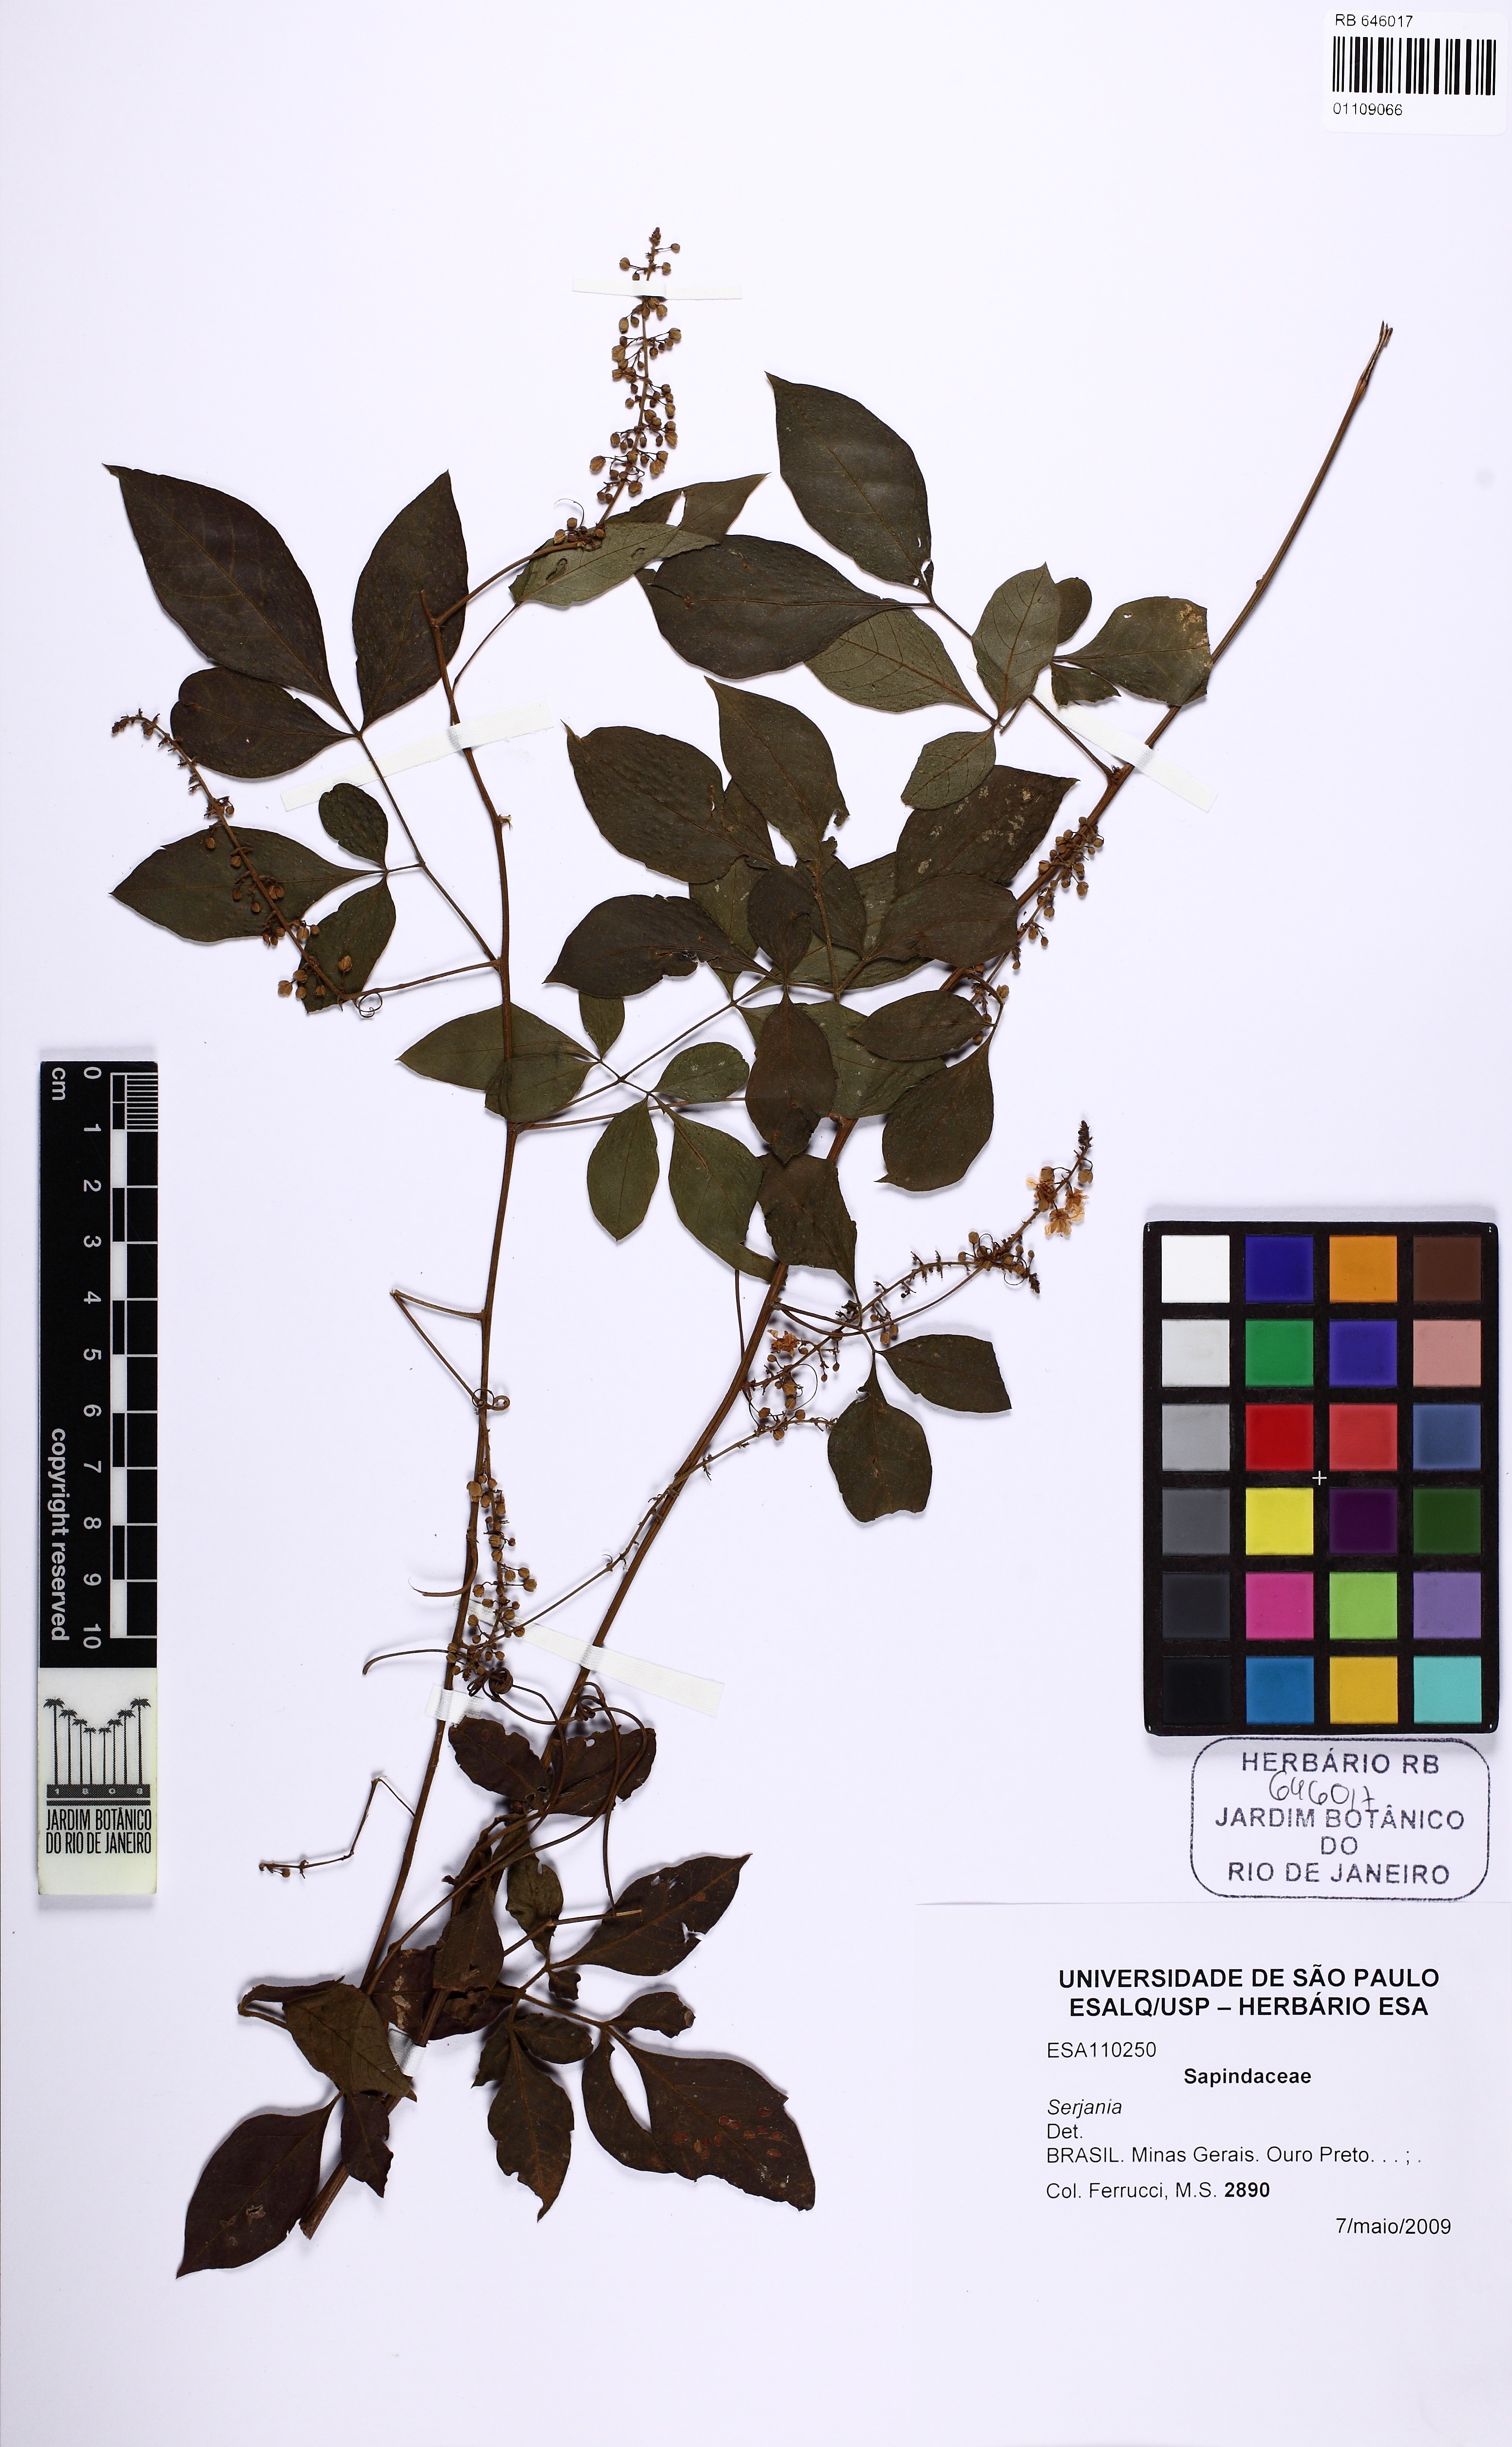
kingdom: Plantae
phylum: Tracheophyta
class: Magnoliopsida
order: Sapindales
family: Sapindaceae
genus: Serjania
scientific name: Serjania deflexa
